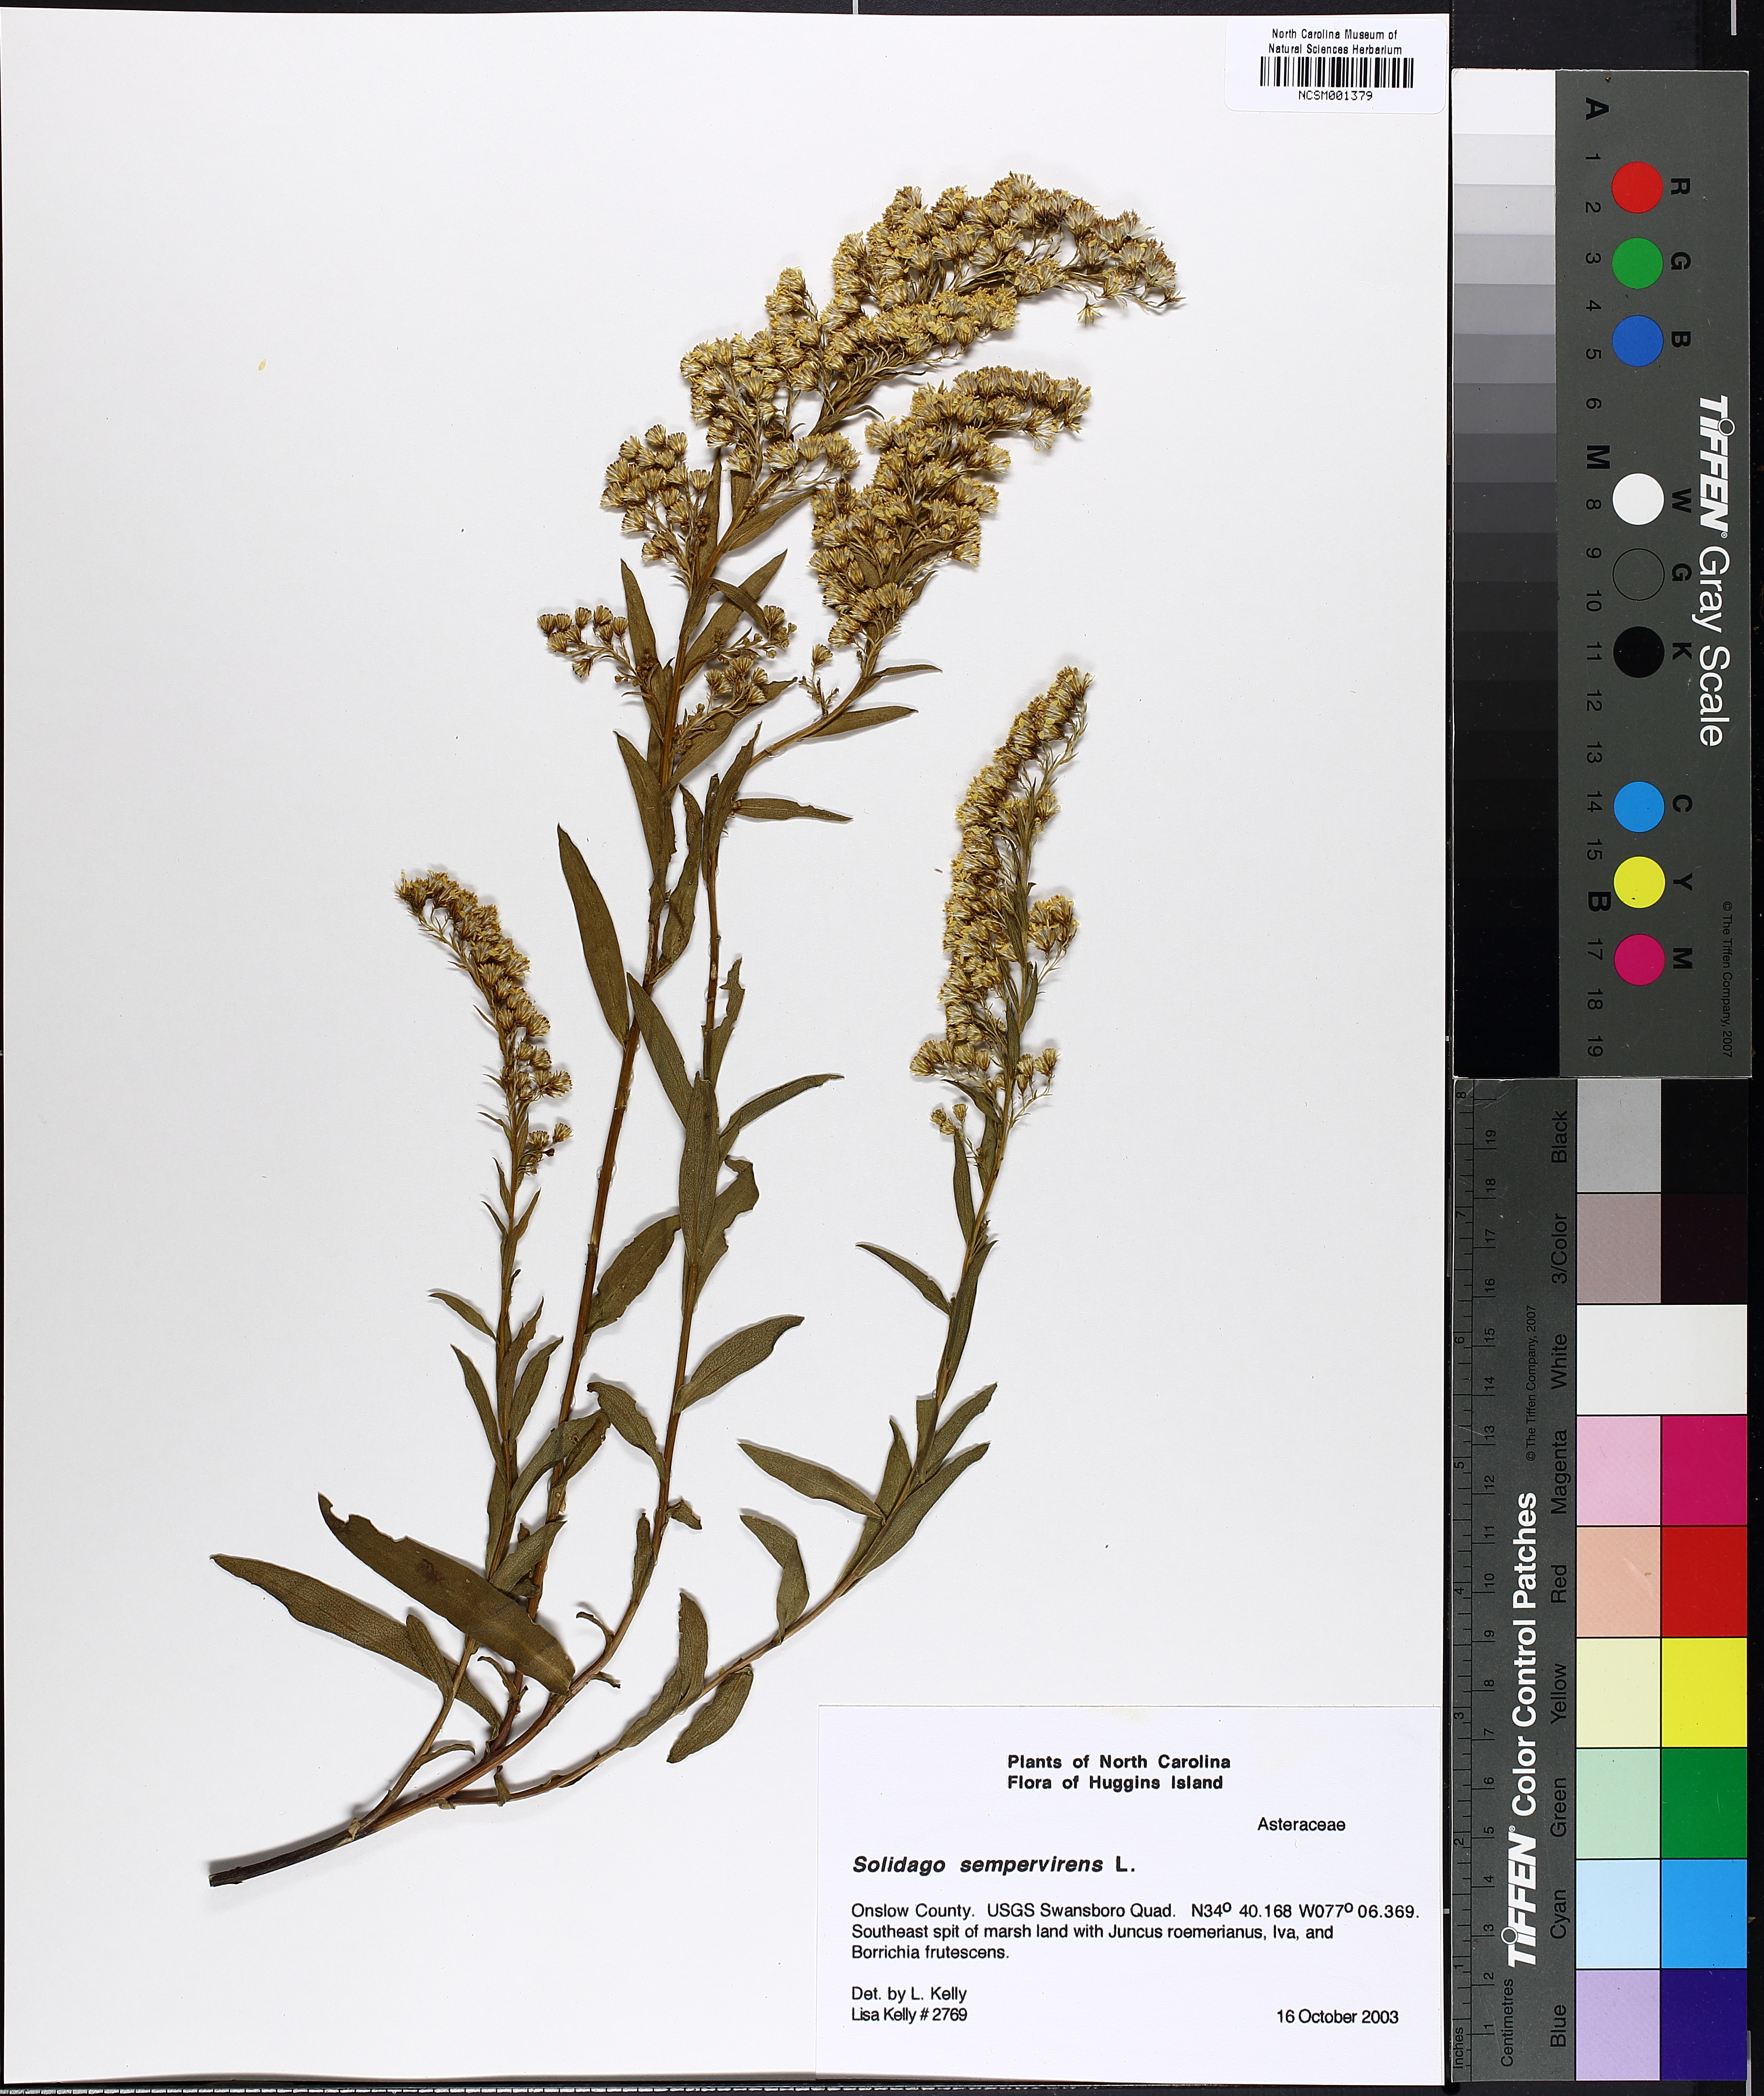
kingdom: Plantae
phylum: Tracheophyta
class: Magnoliopsida
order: Asterales
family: Asteraceae
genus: Solidago
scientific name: Solidago sempervirens
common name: Salt-marsh goldenrod
